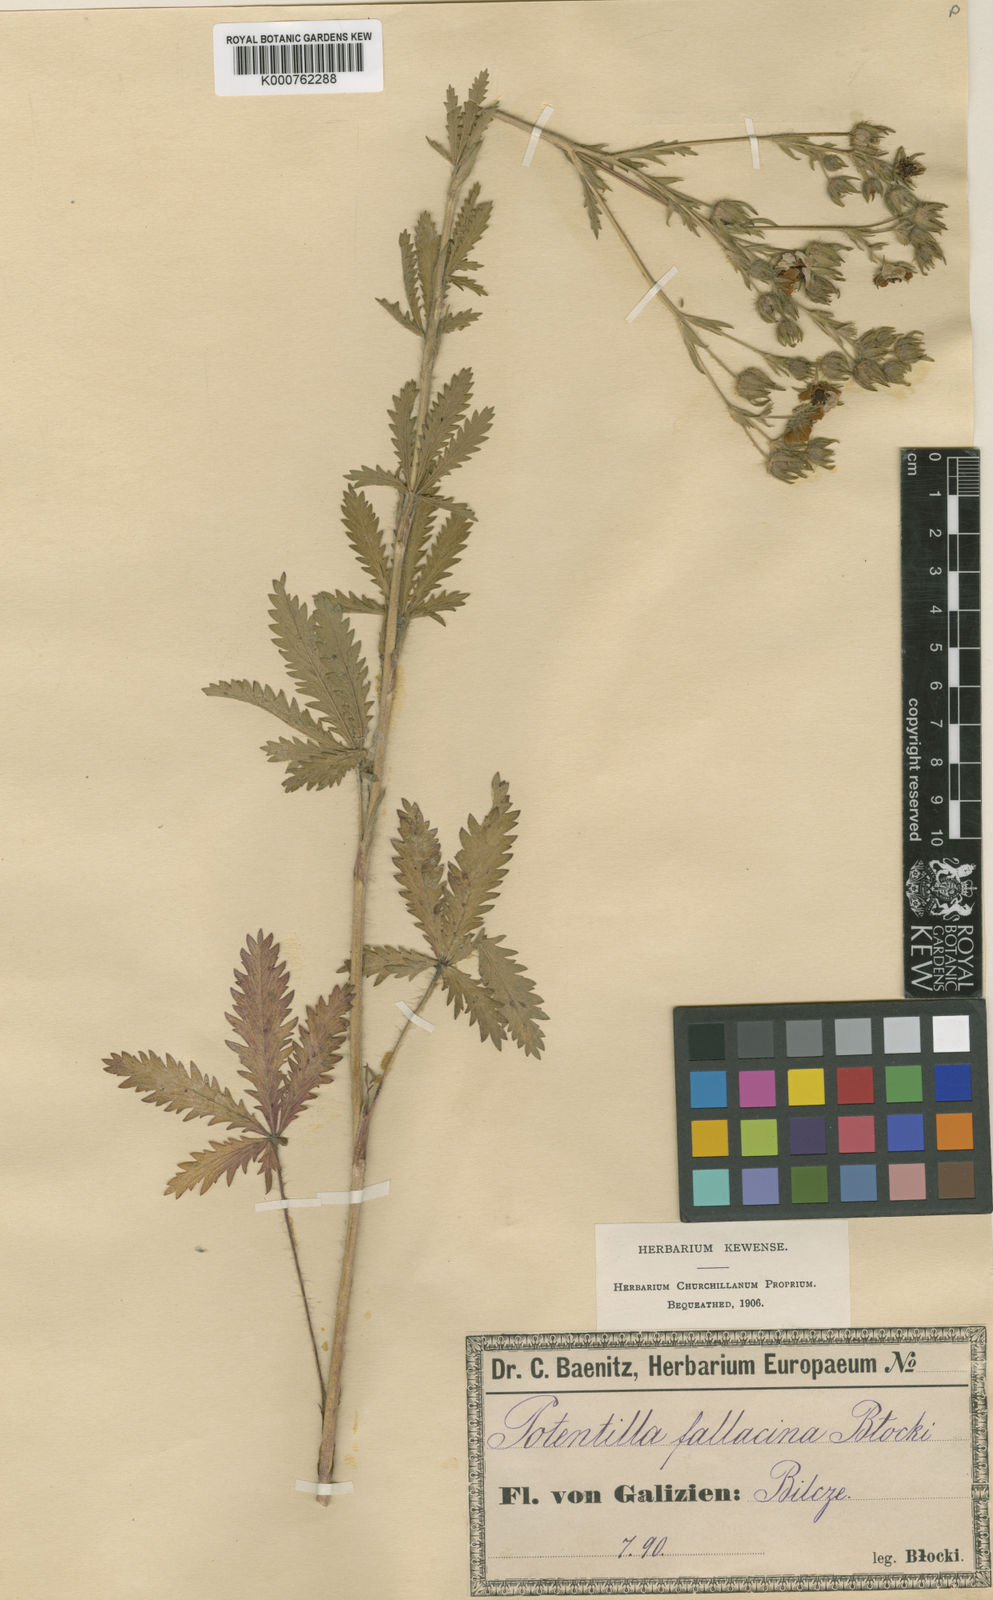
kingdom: Plantae
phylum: Tracheophyta
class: Magnoliopsida
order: Rosales
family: Rosaceae
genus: Potentilla
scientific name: Potentilla recta
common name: Sulphur cinquefoil
